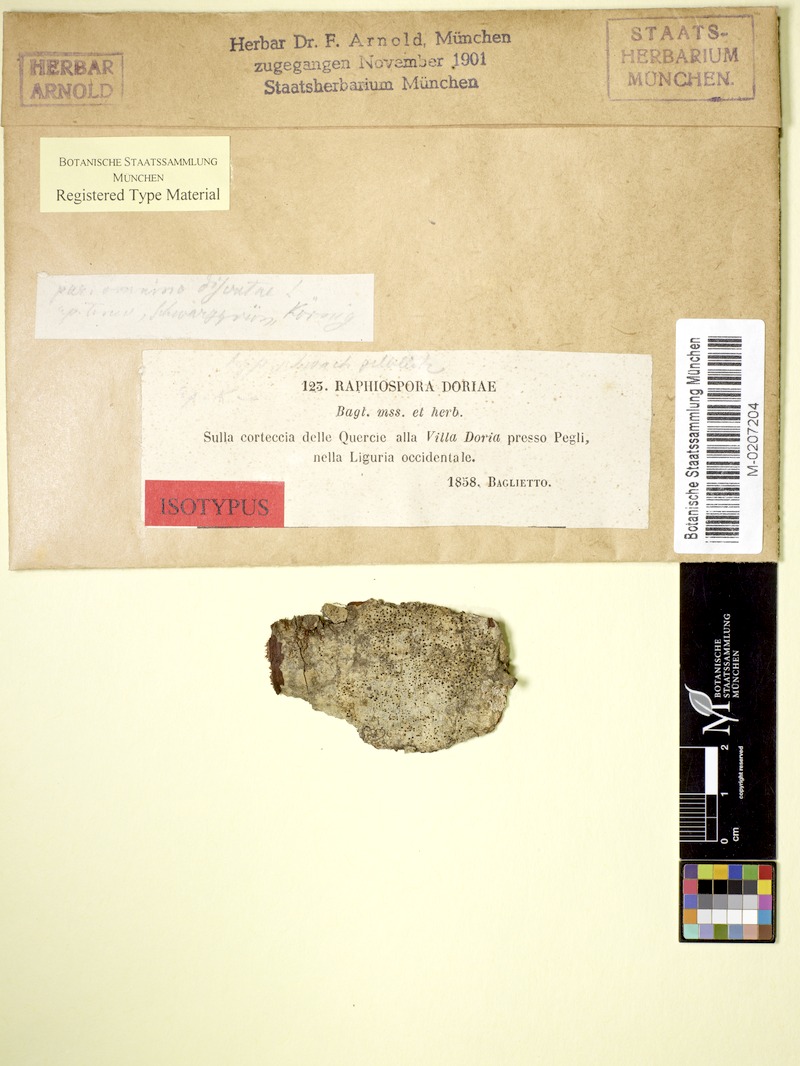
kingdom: Fungi
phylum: Ascomycota
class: Arthoniomycetes
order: Arthoniales
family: Roccellaceae
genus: Bactrospora
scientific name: Bactrospora patellarioides
